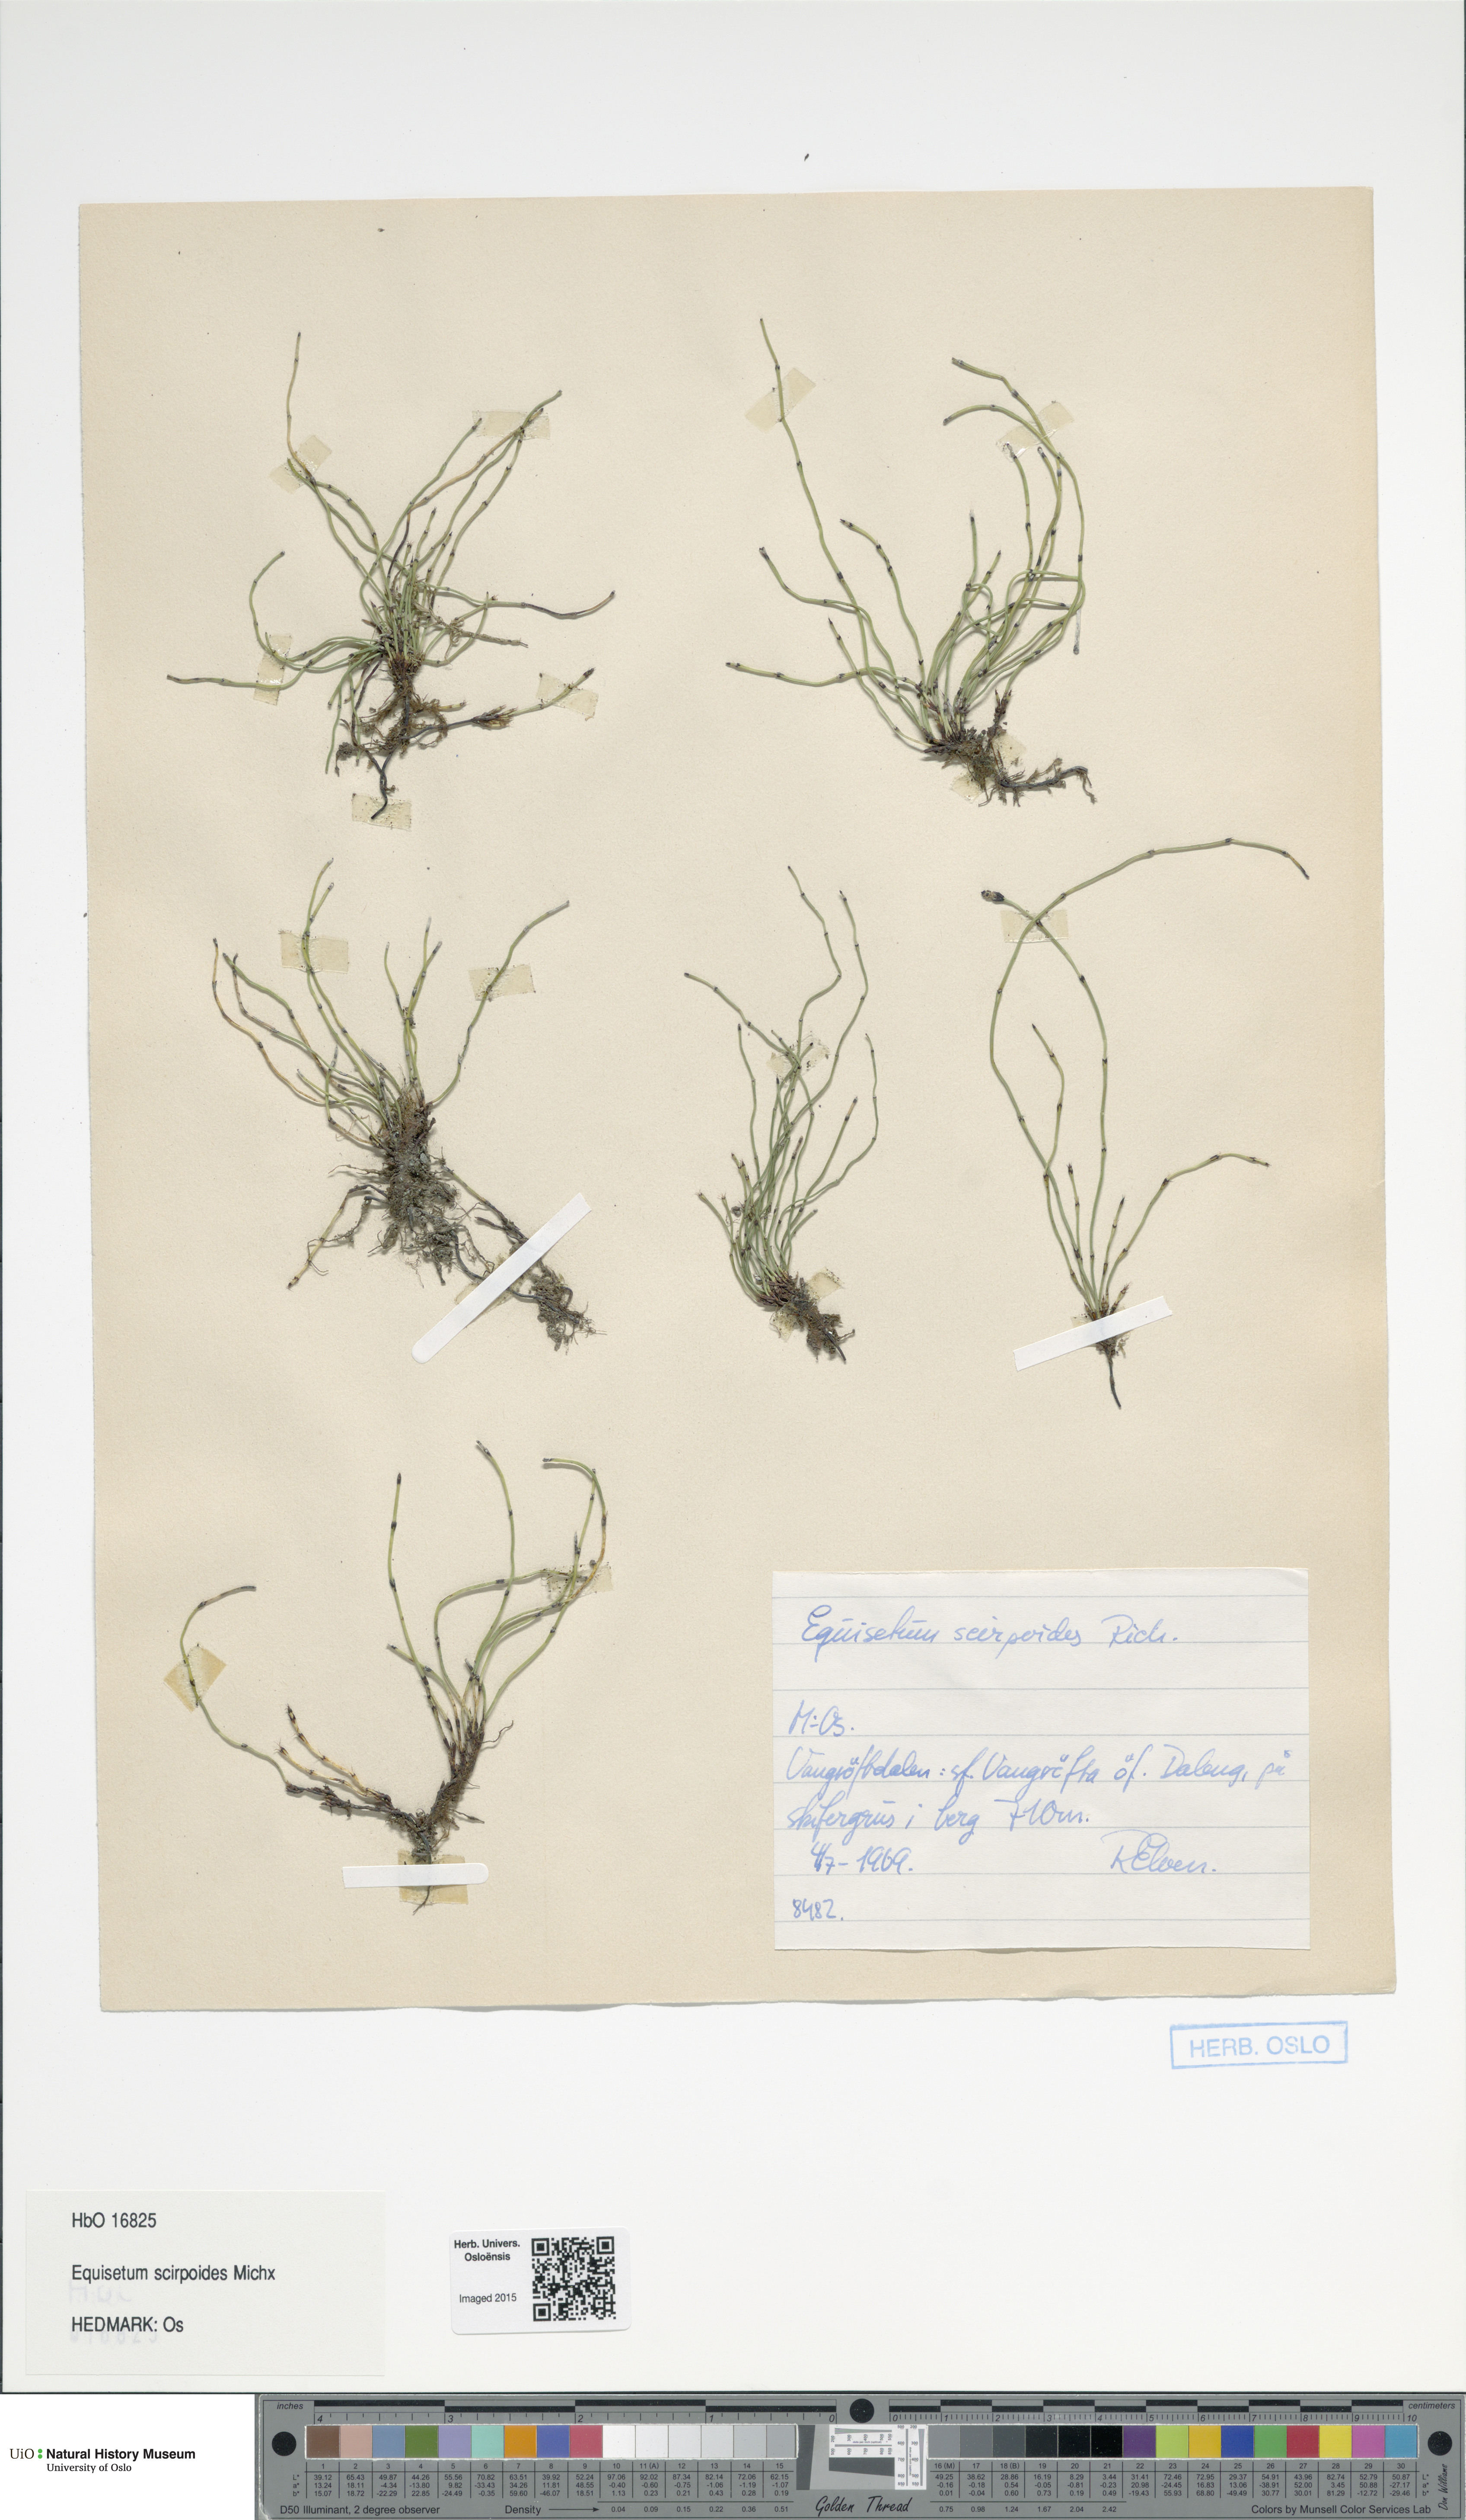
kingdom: Plantae
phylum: Tracheophyta
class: Polypodiopsida
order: Equisetales
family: Equisetaceae
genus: Equisetum
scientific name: Equisetum scirpoides
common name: Delicate horsetail
